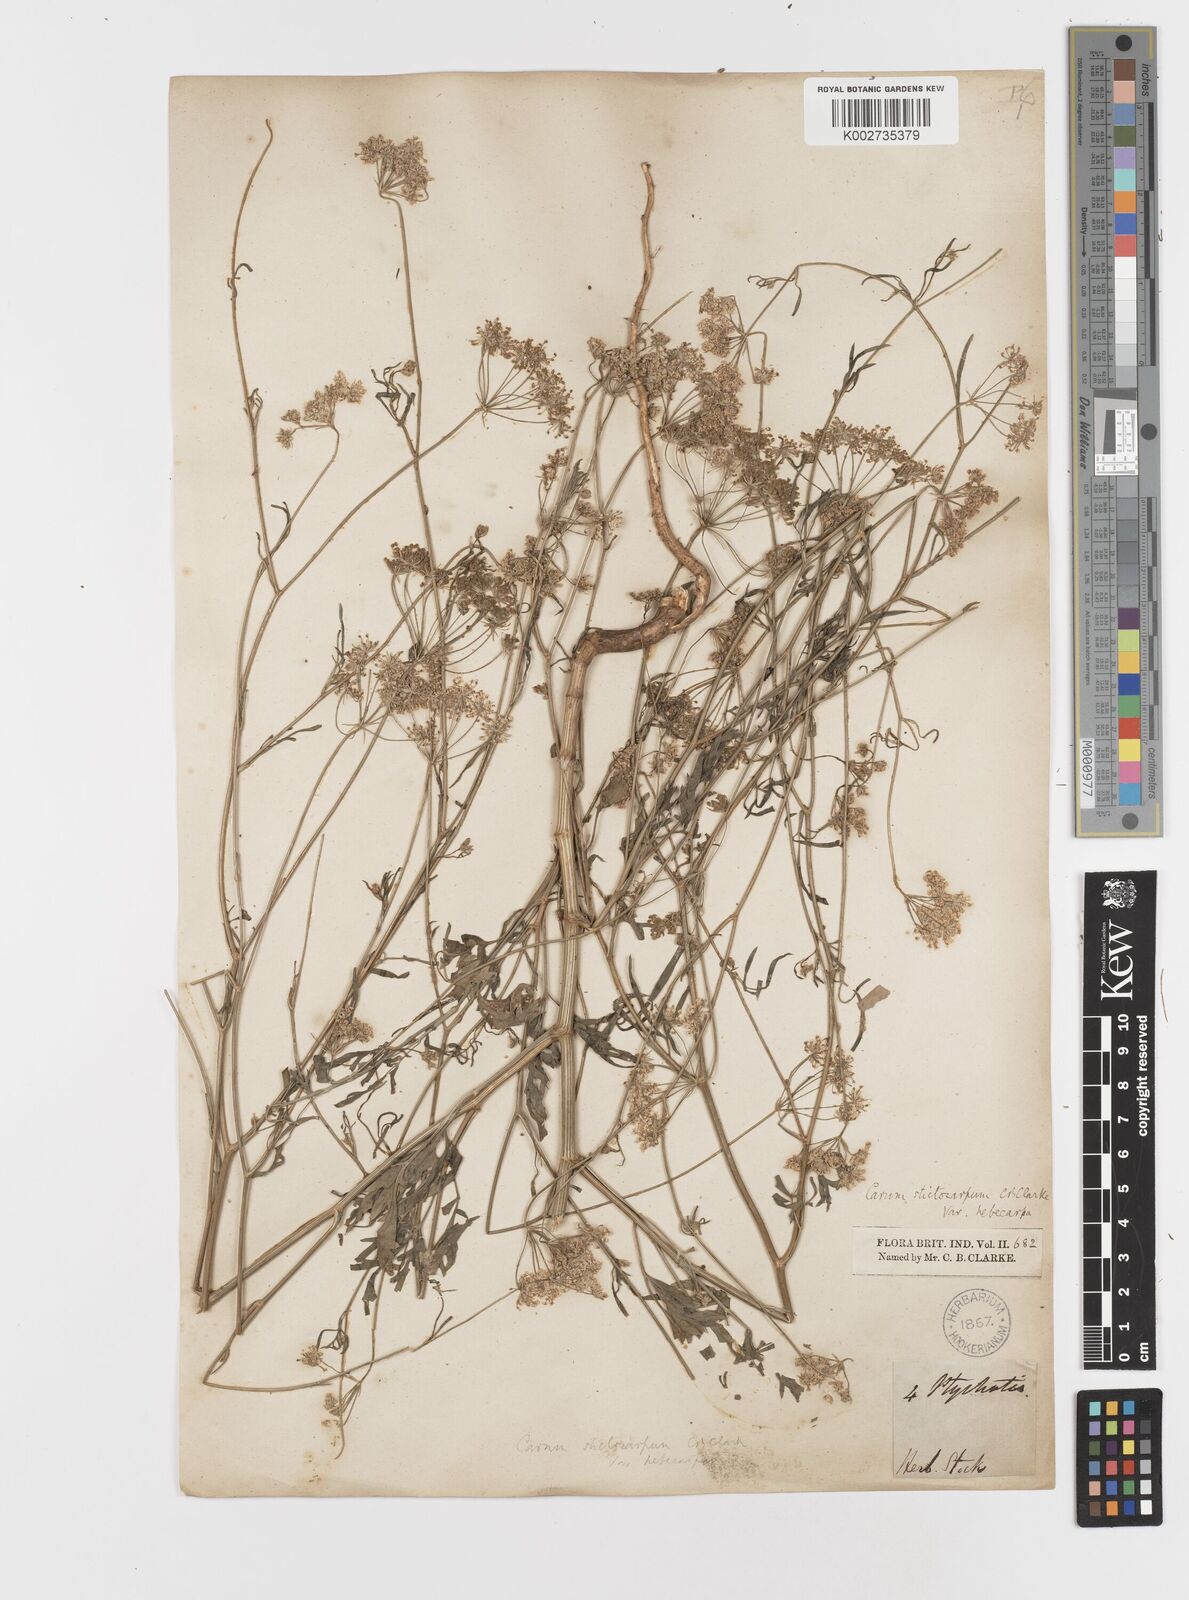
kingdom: Plantae
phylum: Tracheophyta
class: Magnoliopsida
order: Apiales
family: Apiaceae
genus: Psammogeton
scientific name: Psammogeton involucratum
